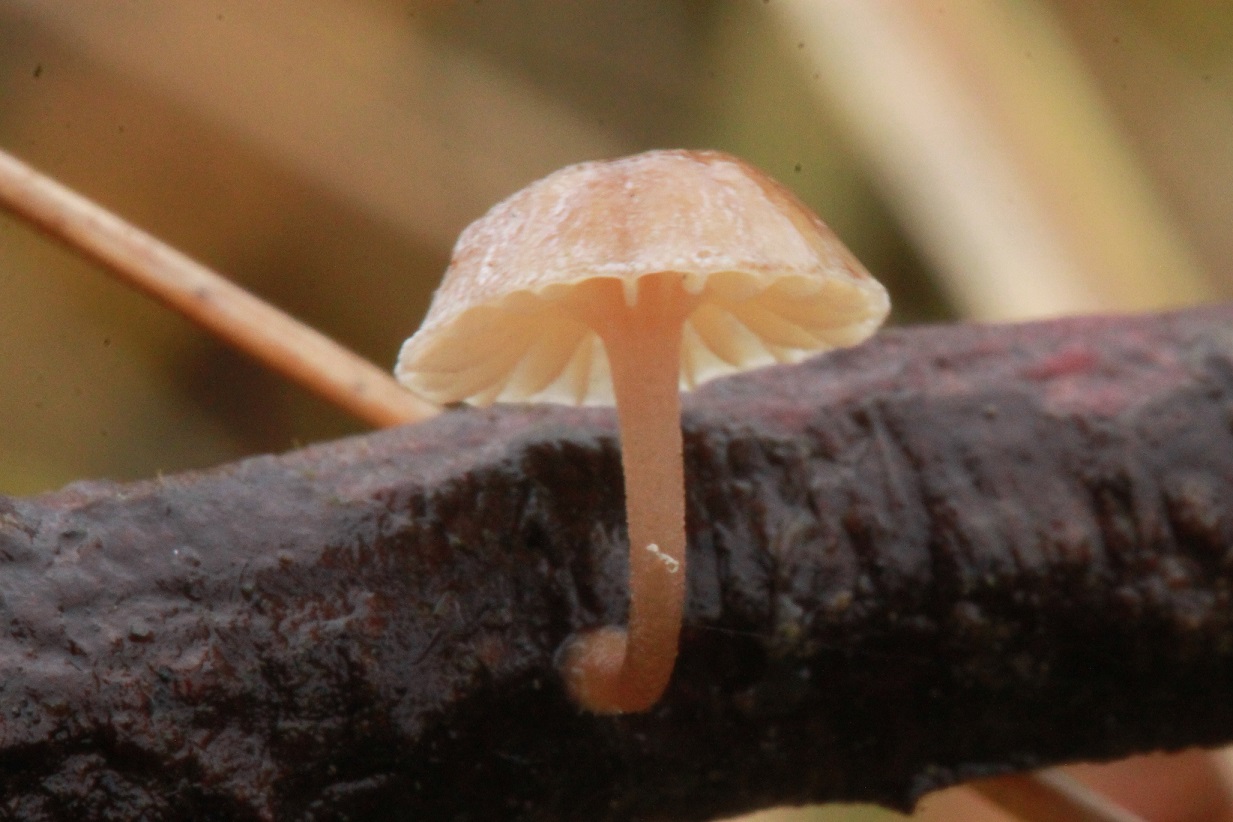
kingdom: Fungi
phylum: Basidiomycota
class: Agaricomycetes
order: Agaricales
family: Mycenaceae
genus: Mycena
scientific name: Mycena juniperina
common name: ene-Huesvamp
